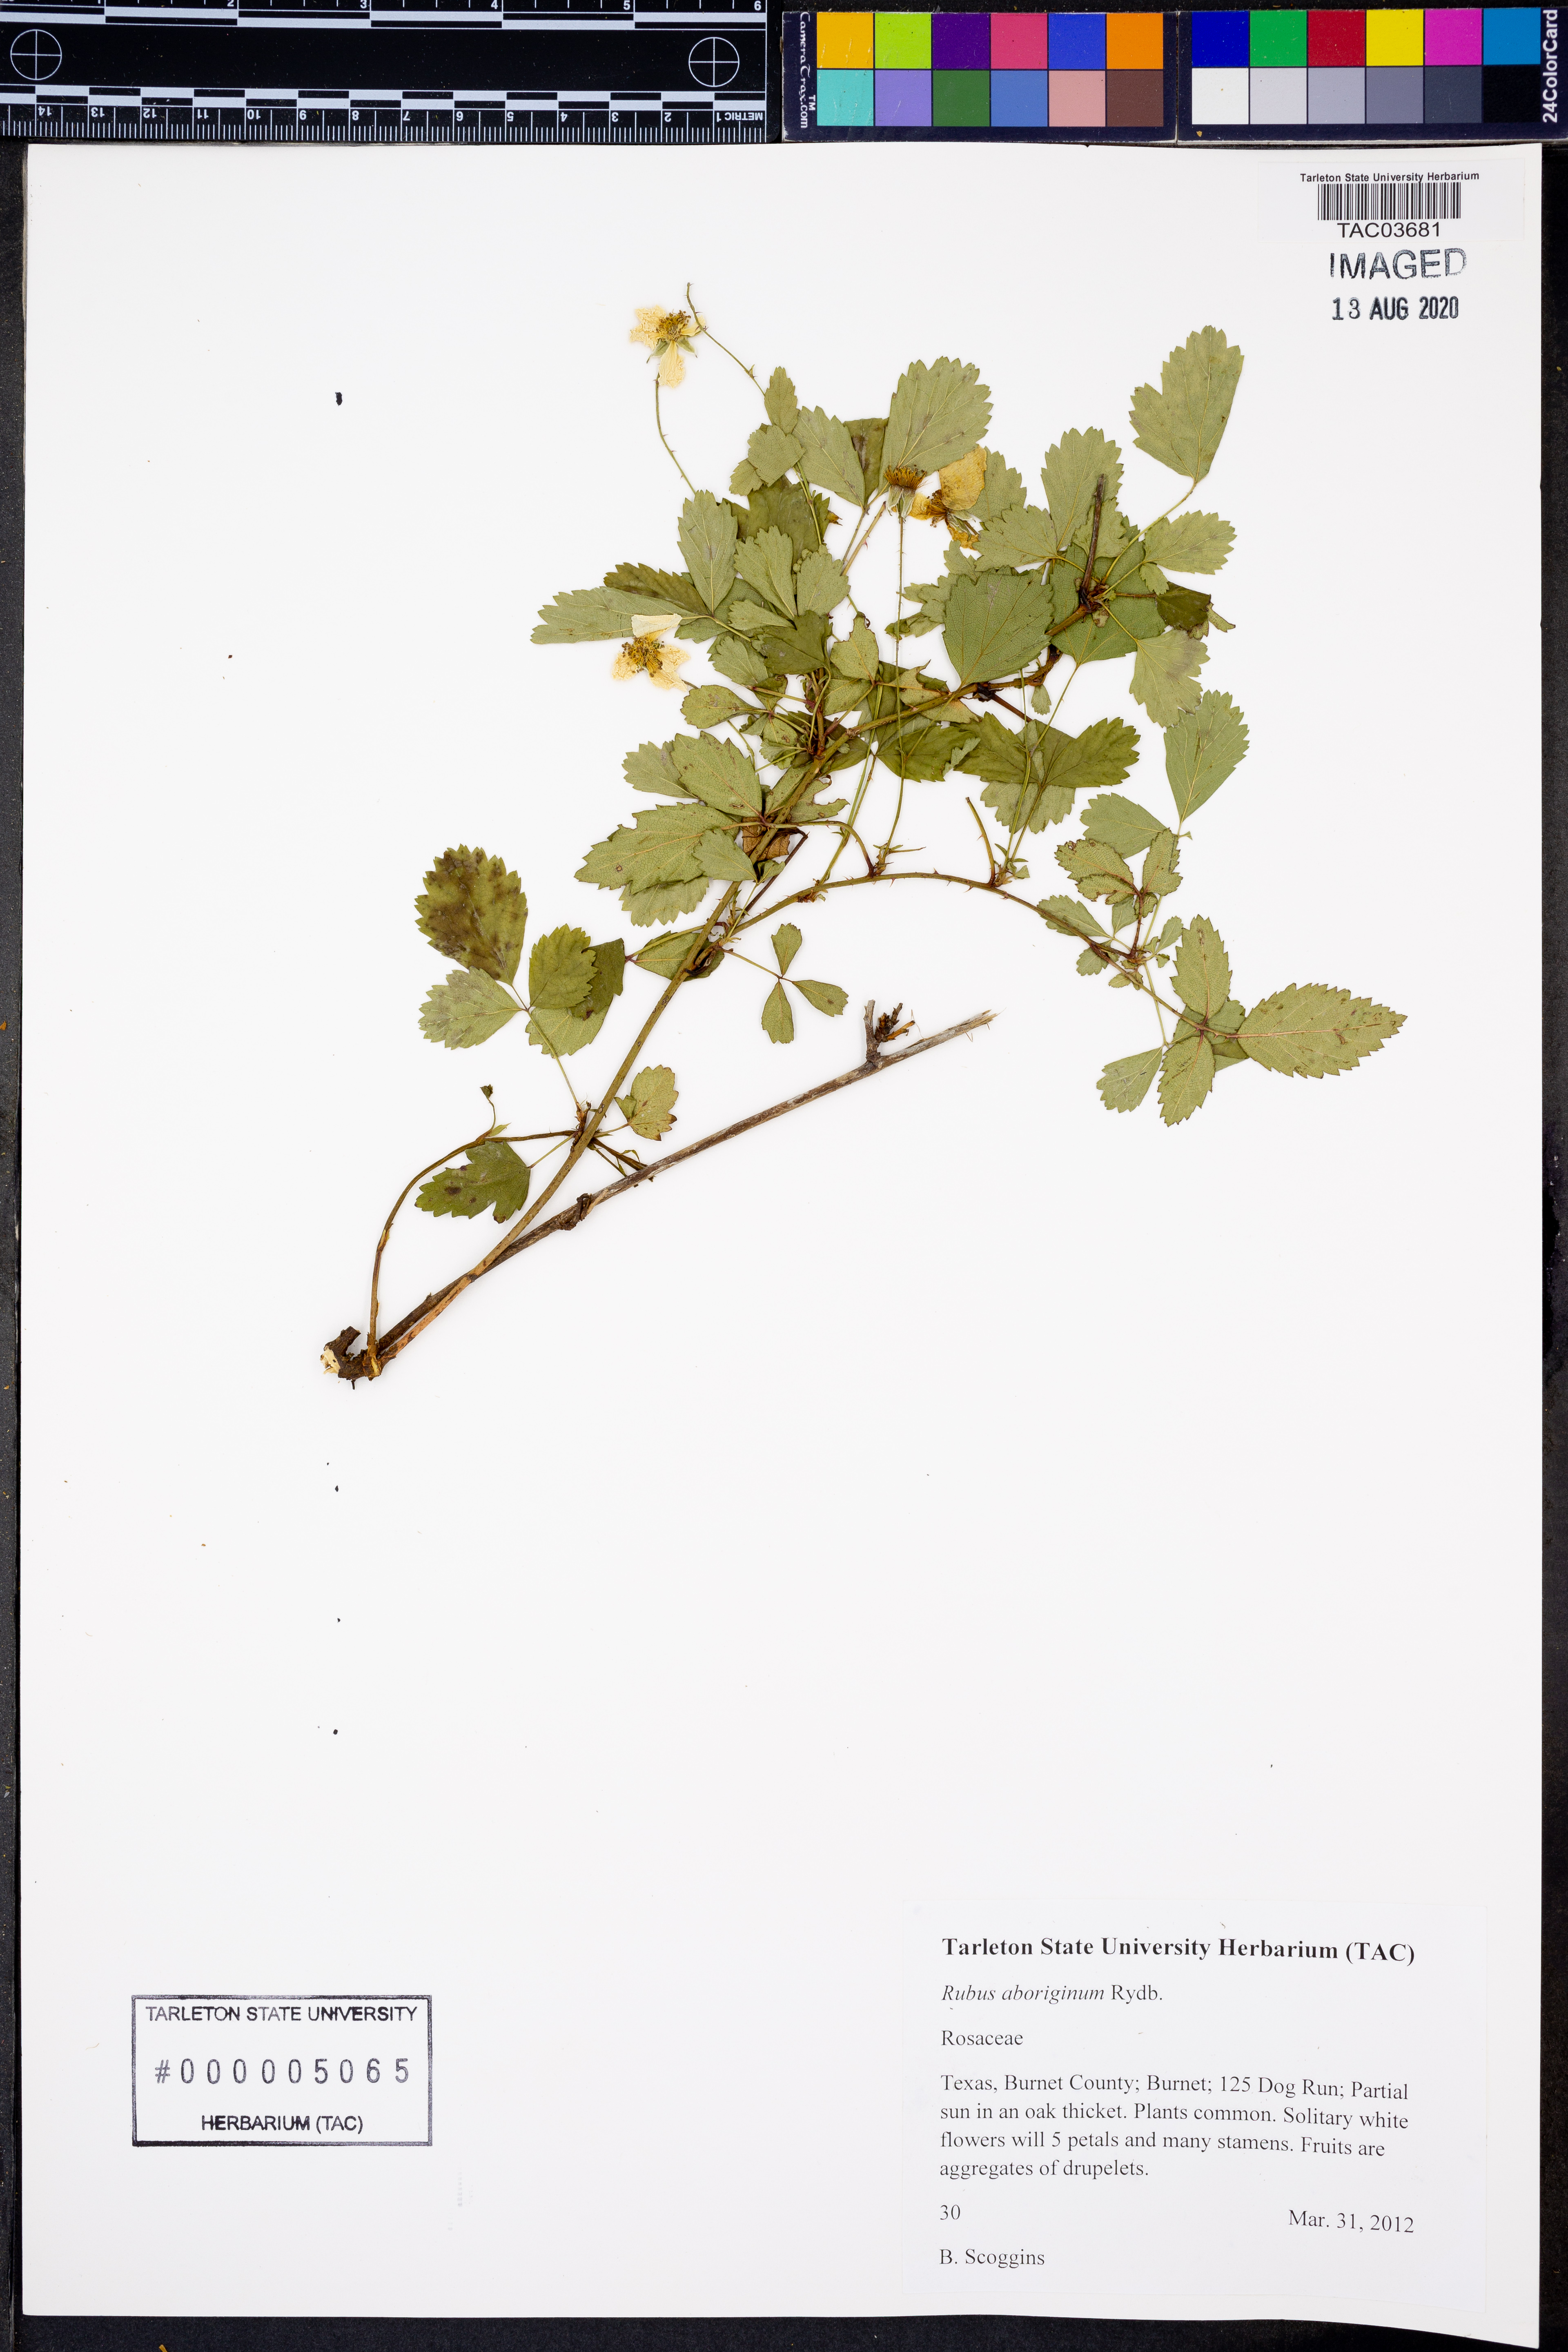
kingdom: Plantae
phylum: Tracheophyta
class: Magnoliopsida
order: Rosales
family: Rosaceae
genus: Rubus
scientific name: Rubus aboriginum
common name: Mayes dewberry
